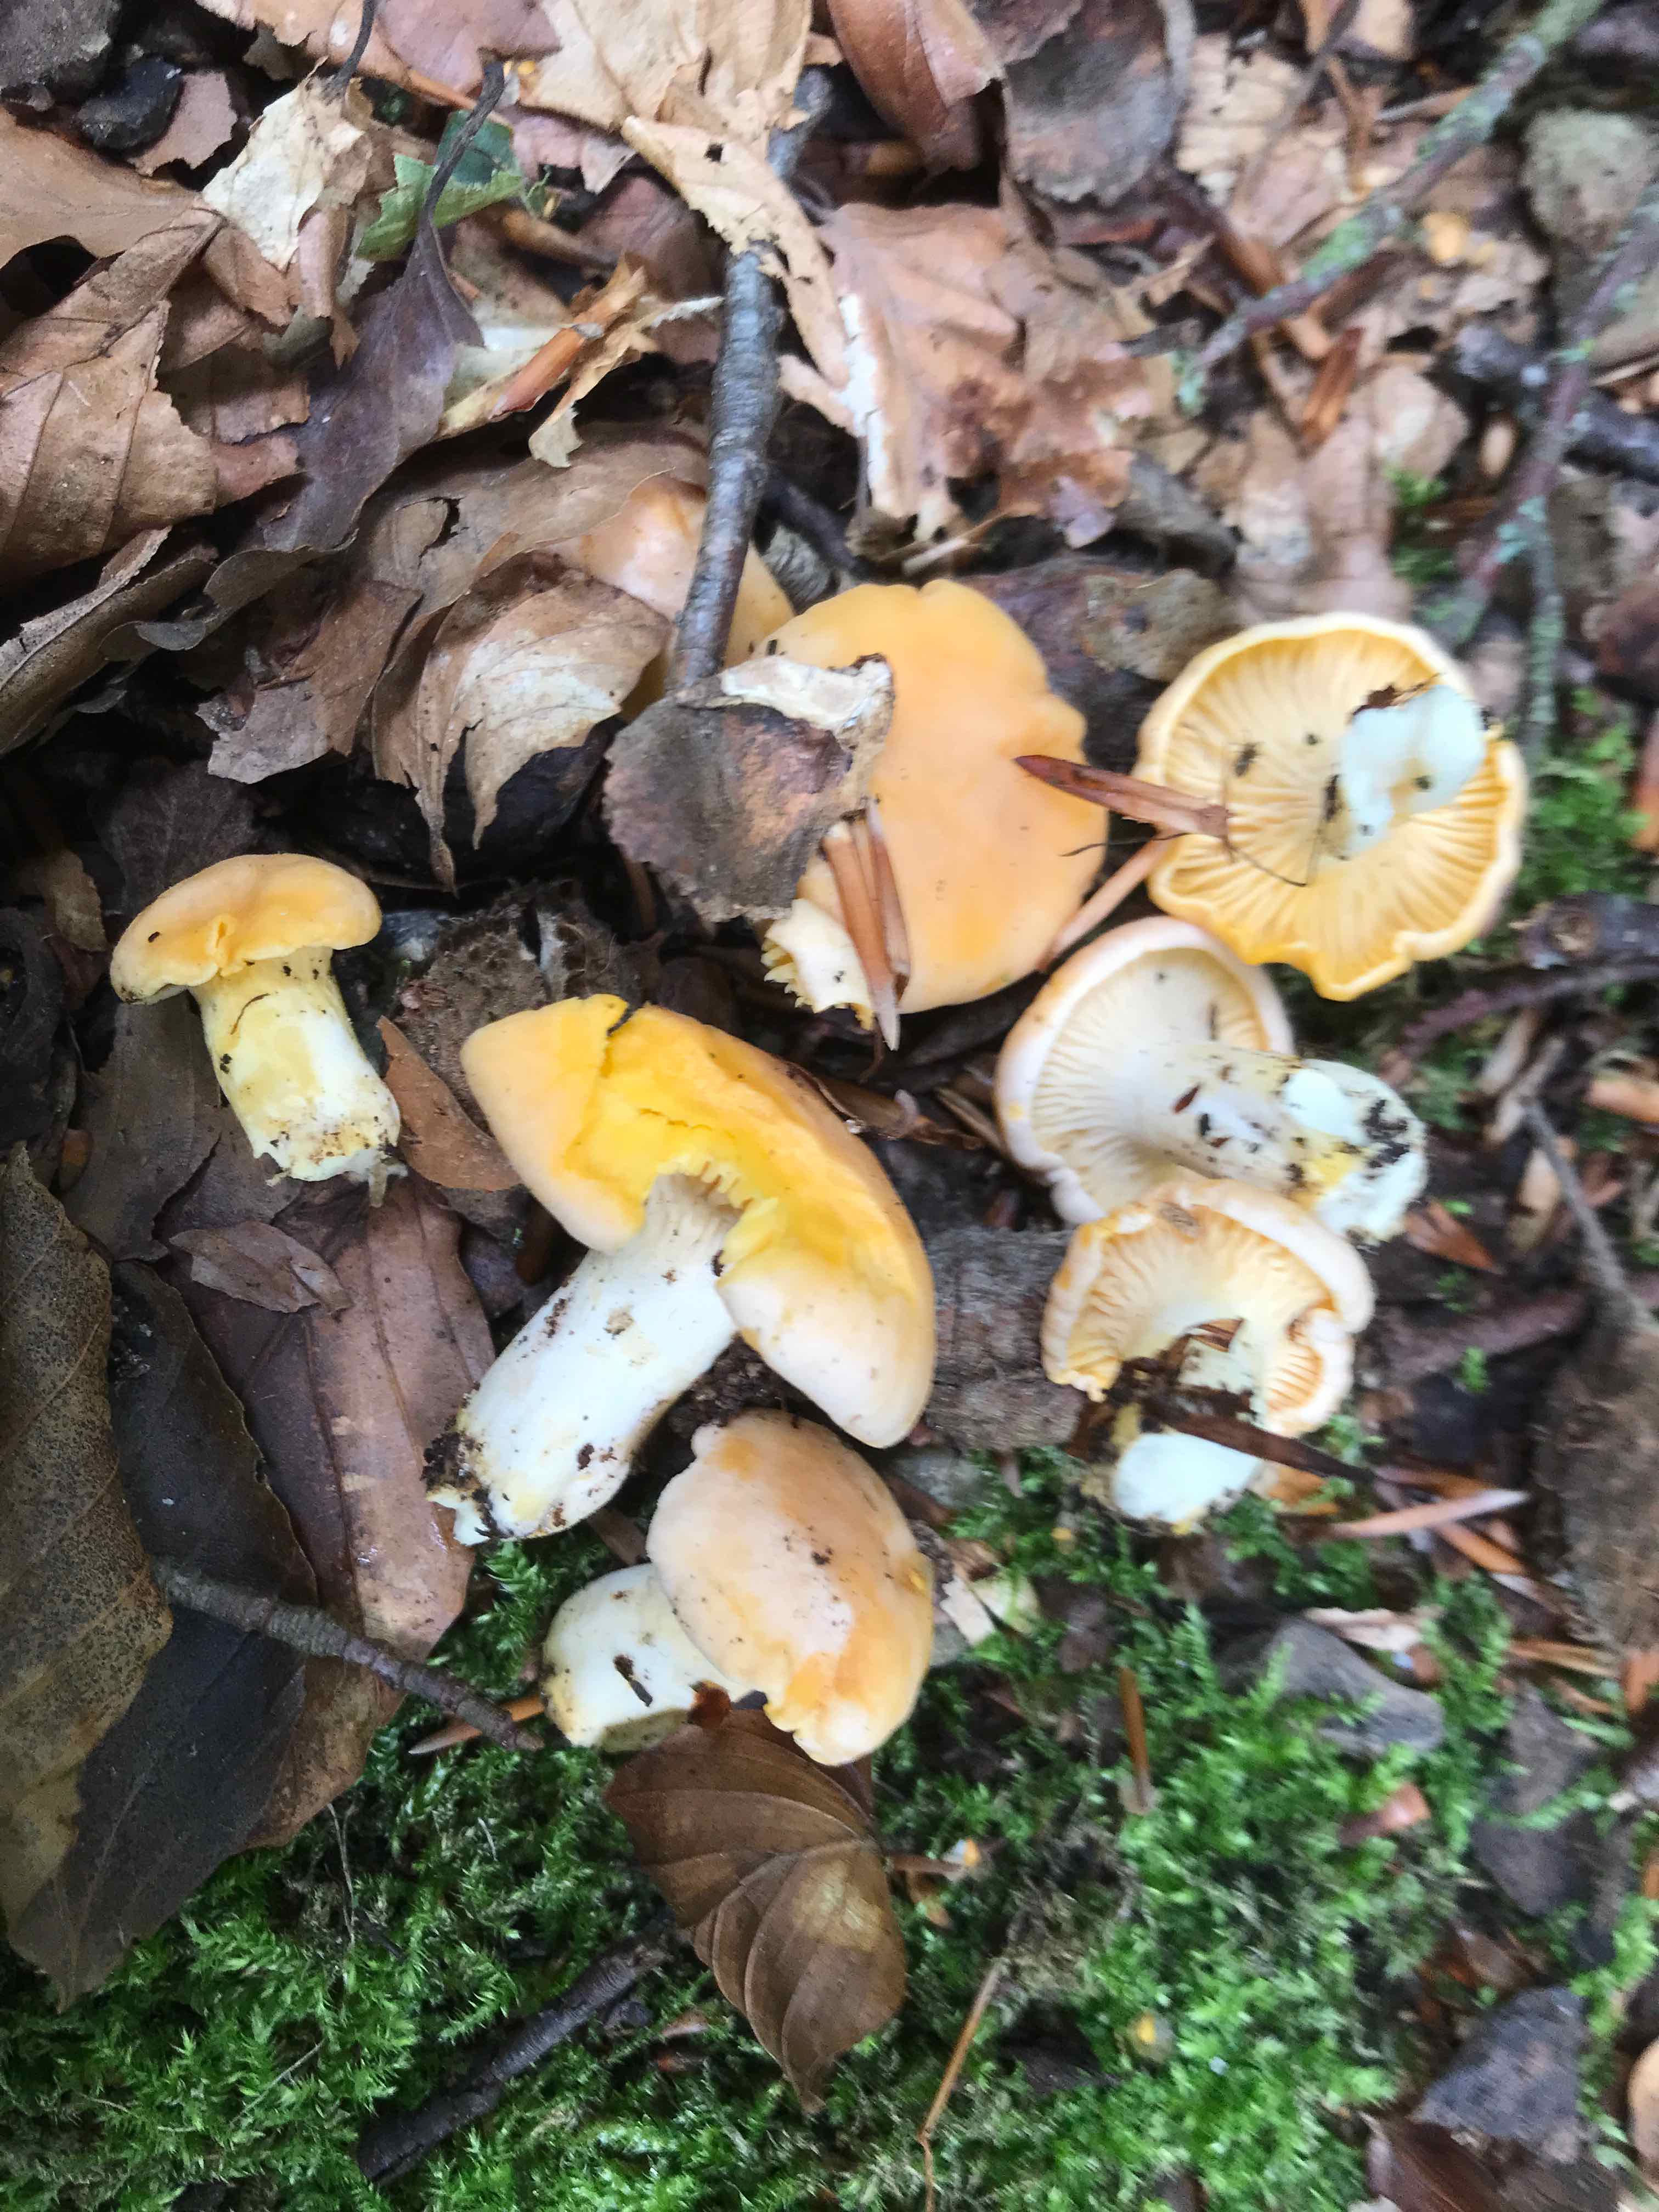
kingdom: Fungi
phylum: Basidiomycota
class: Agaricomycetes
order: Cantharellales
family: Hydnaceae
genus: Cantharellus
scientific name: Cantharellus pallens
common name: bleg kantarel
